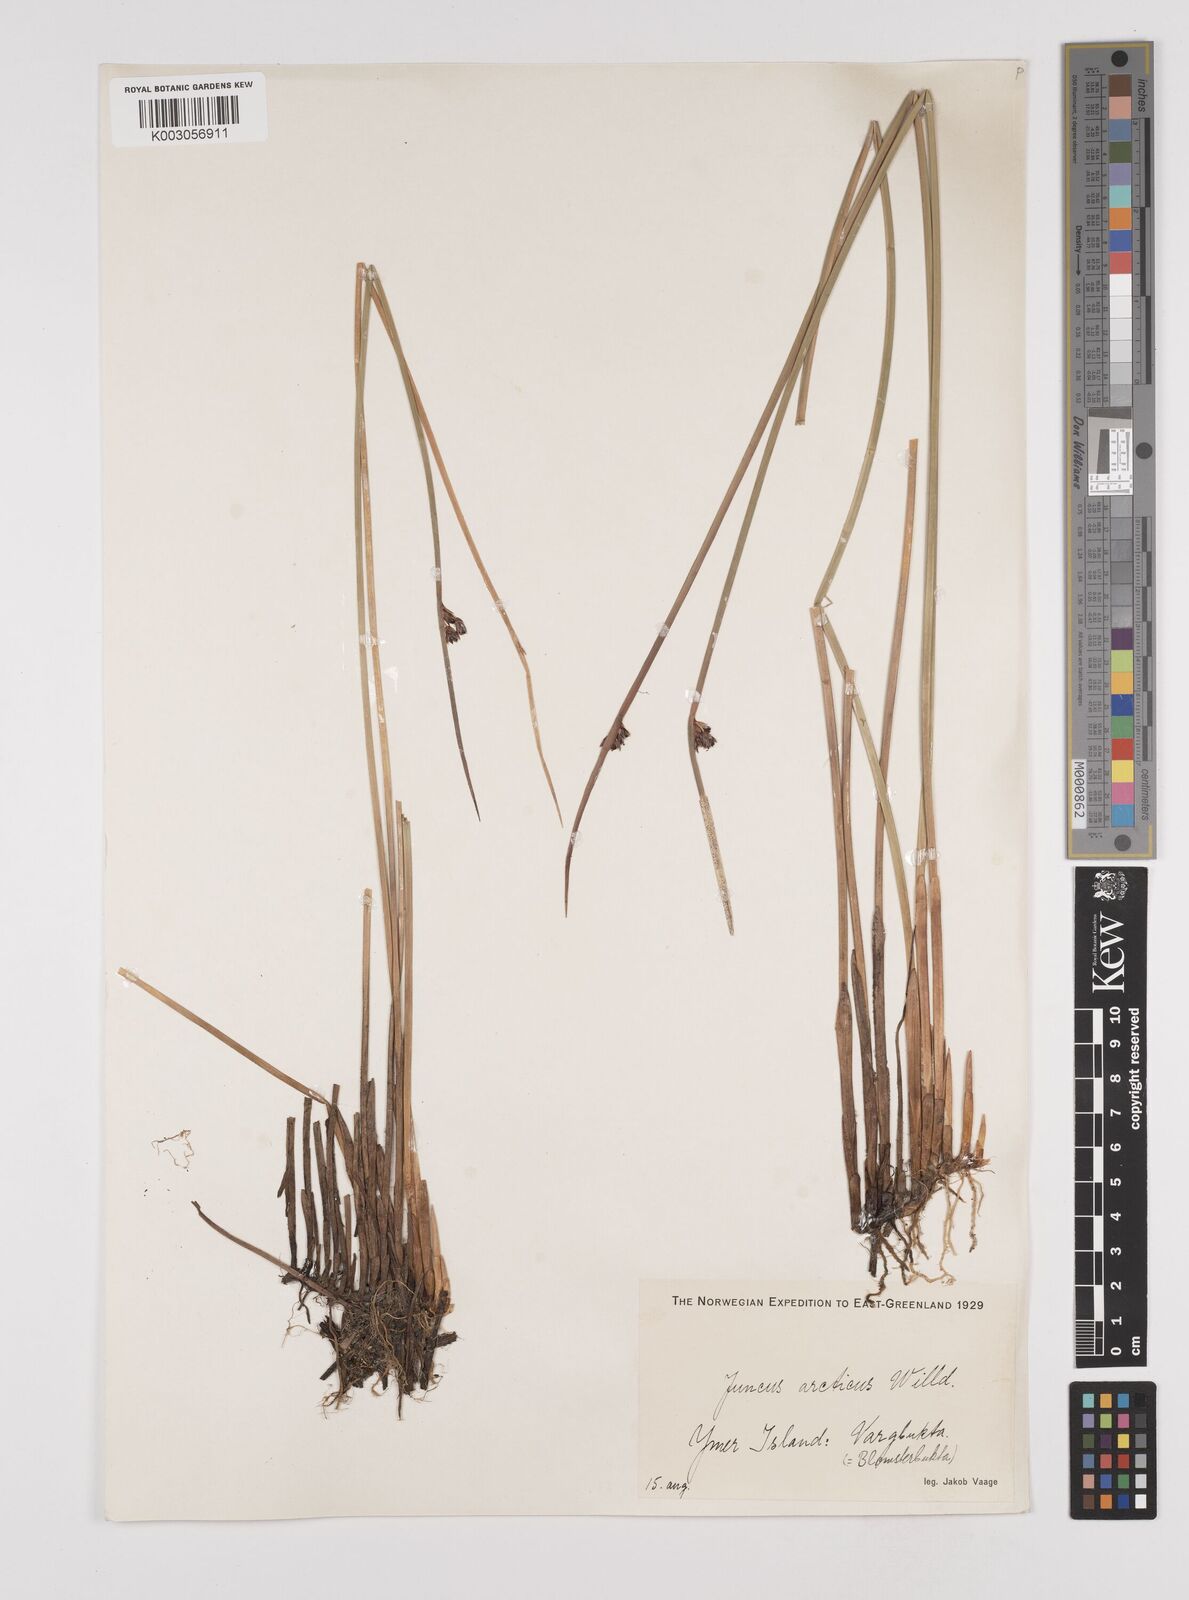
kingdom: Plantae
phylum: Tracheophyta
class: Liliopsida
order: Poales
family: Juncaceae
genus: Juncus
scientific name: Juncus arcticus
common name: Arctic rush
